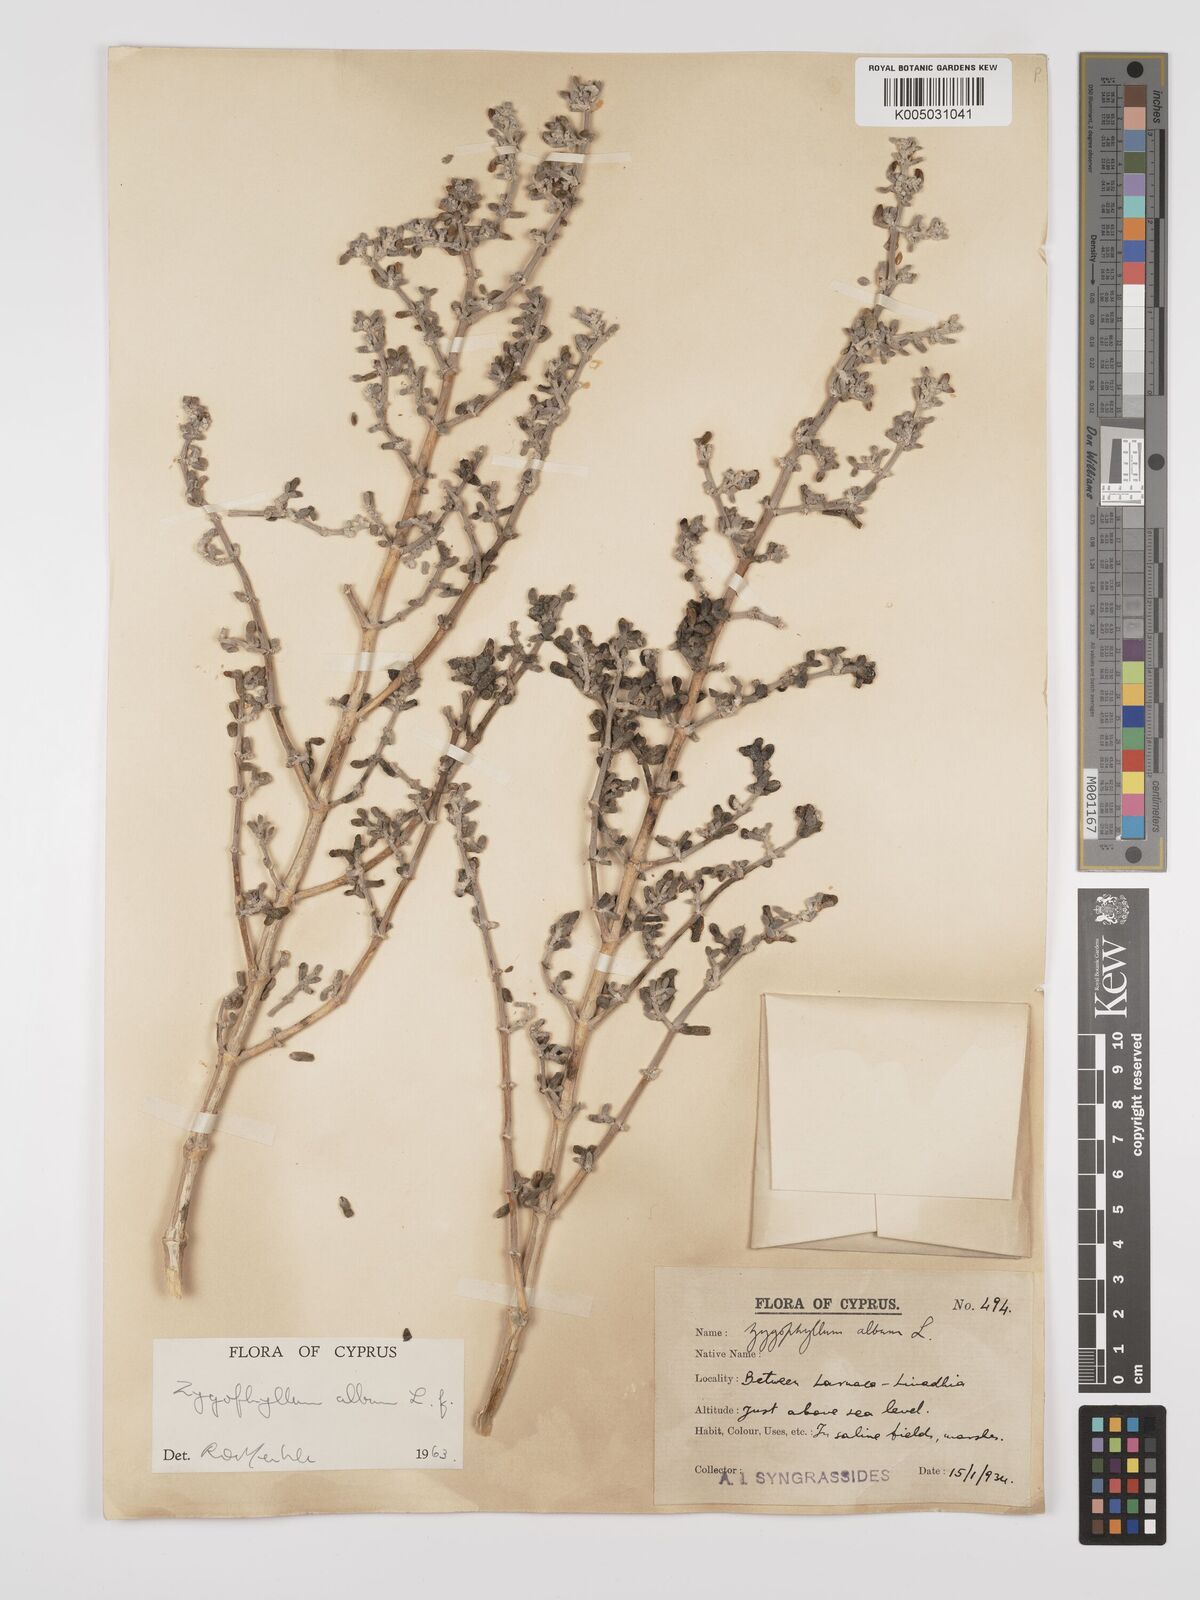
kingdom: Plantae
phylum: Tracheophyta
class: Magnoliopsida
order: Zygophyllales
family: Zygophyllaceae
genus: Zygophyllum
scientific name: Zygophyllum
